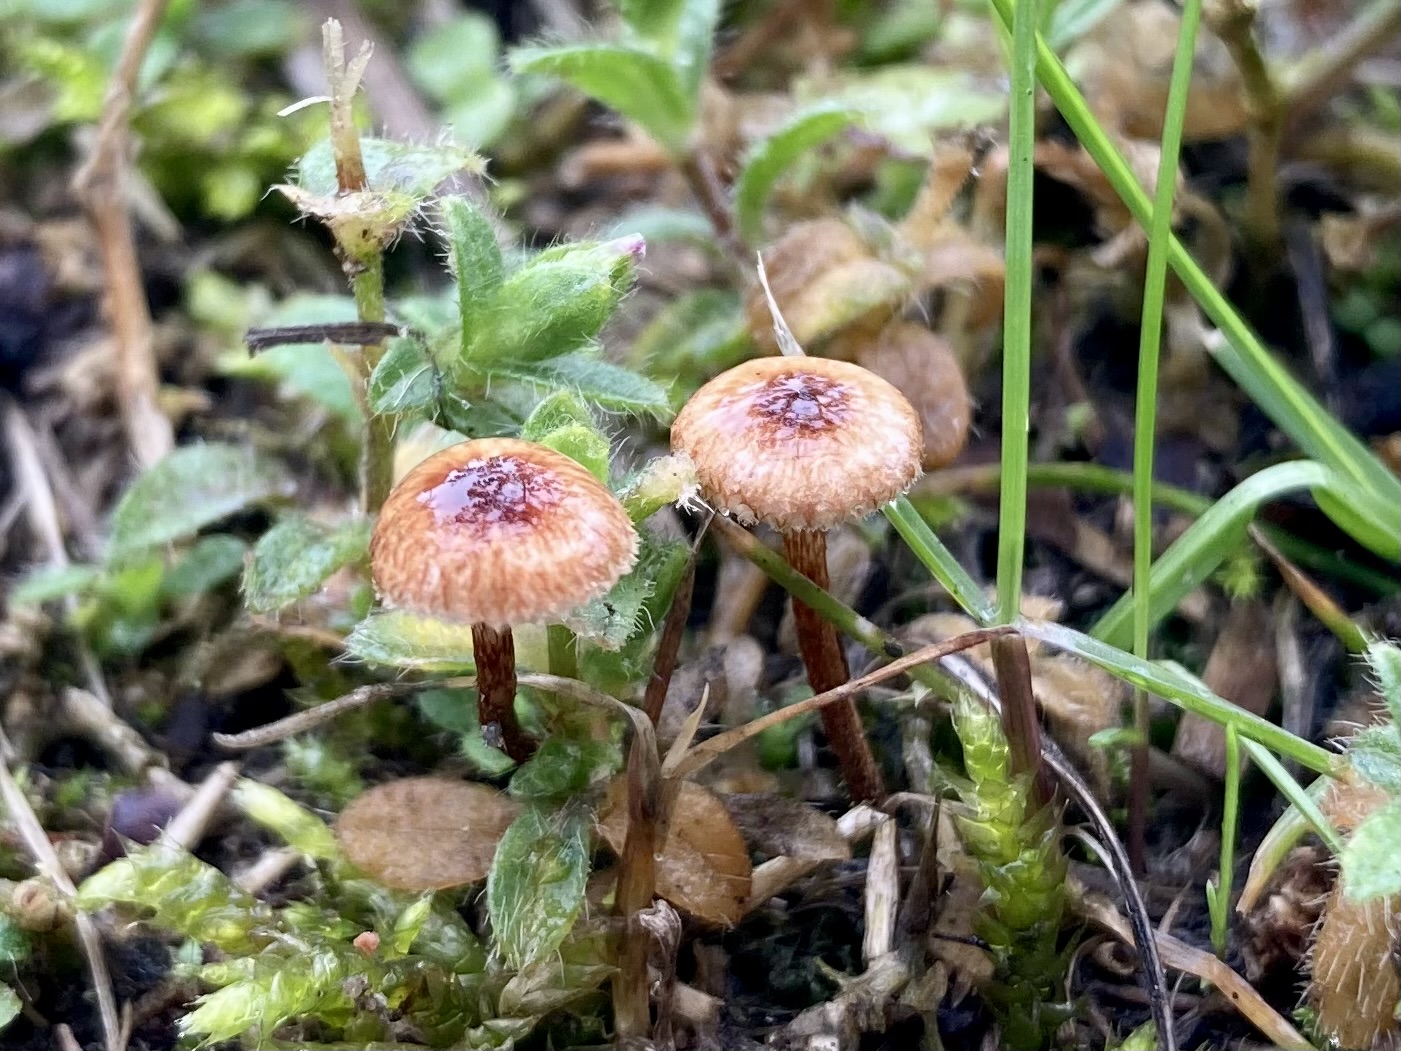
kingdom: Fungi
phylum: Basidiomycota
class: Agaricomycetes
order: Agaricales
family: Marasmiaceae
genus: Crinipellis
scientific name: Crinipellis scabella
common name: børstefod
